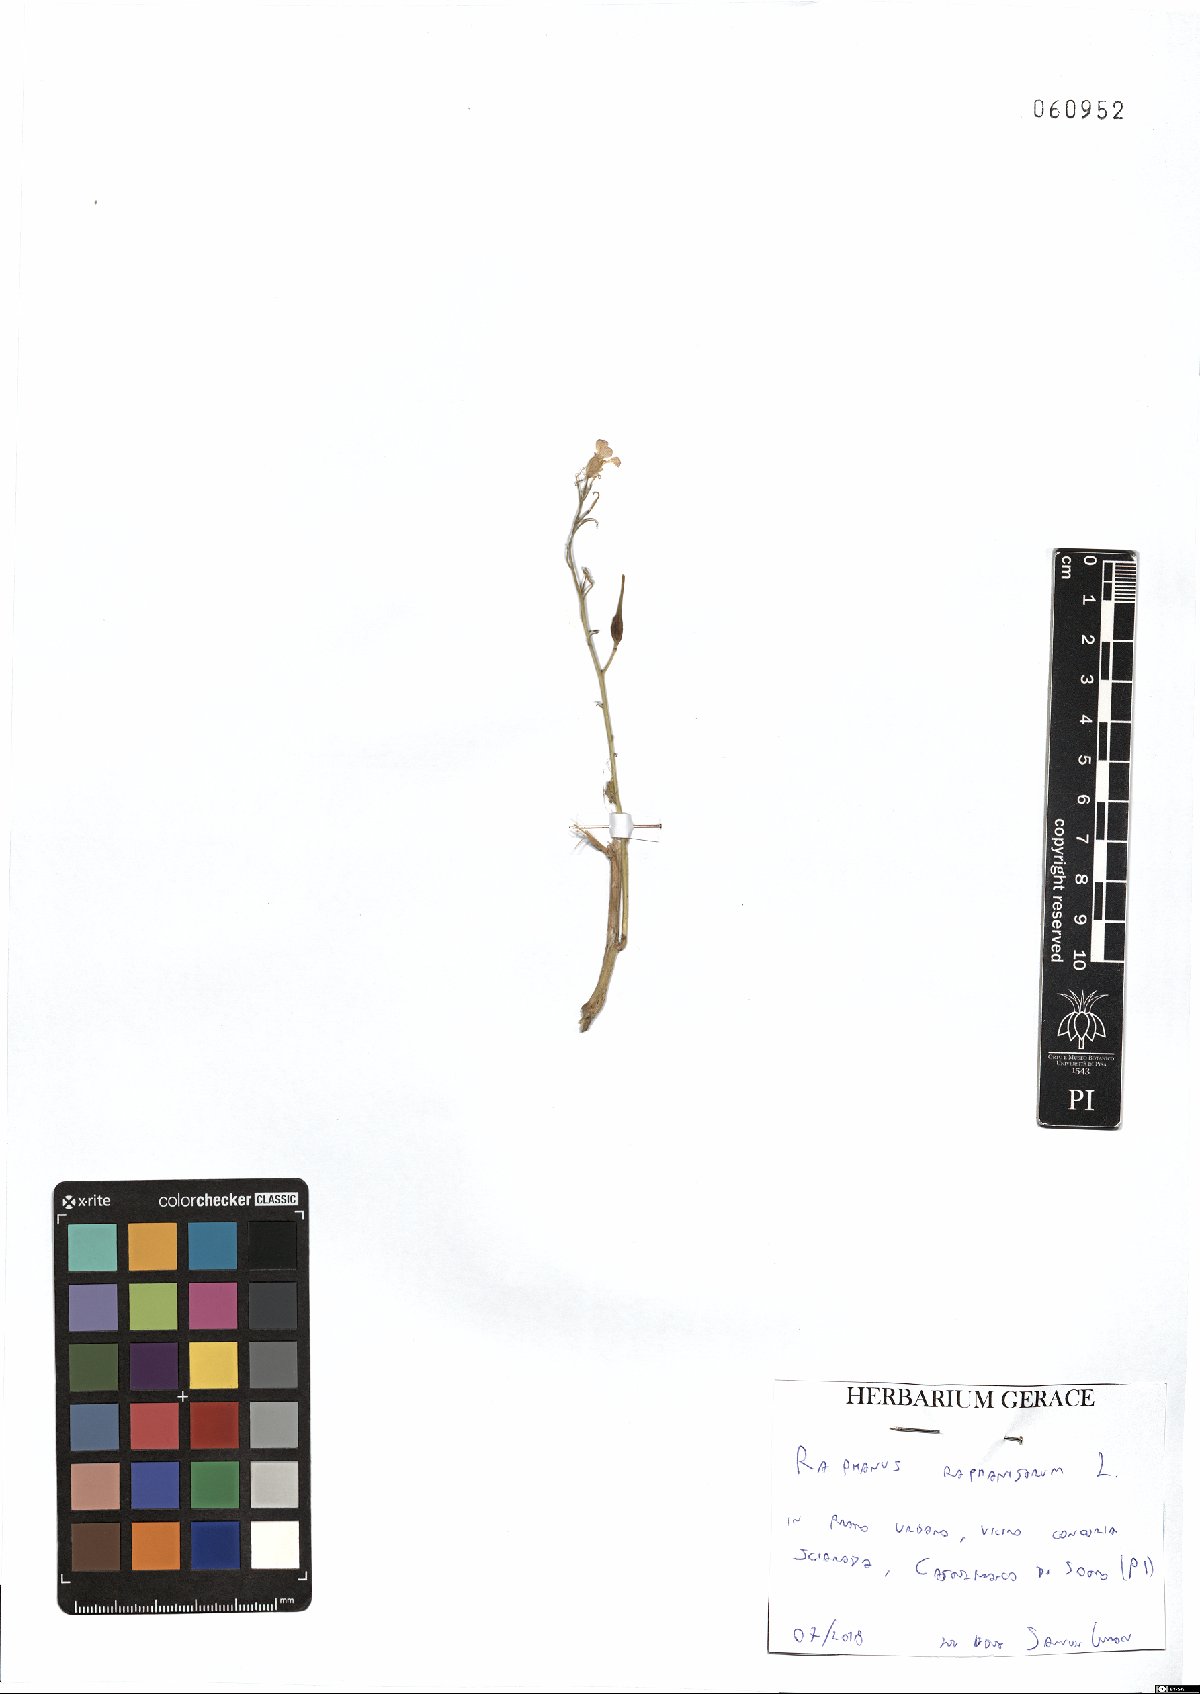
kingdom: Plantae
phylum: Tracheophyta
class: Magnoliopsida
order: Brassicales
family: Brassicaceae
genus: Raphanus
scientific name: Raphanus raphanistrum
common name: Wild radish
